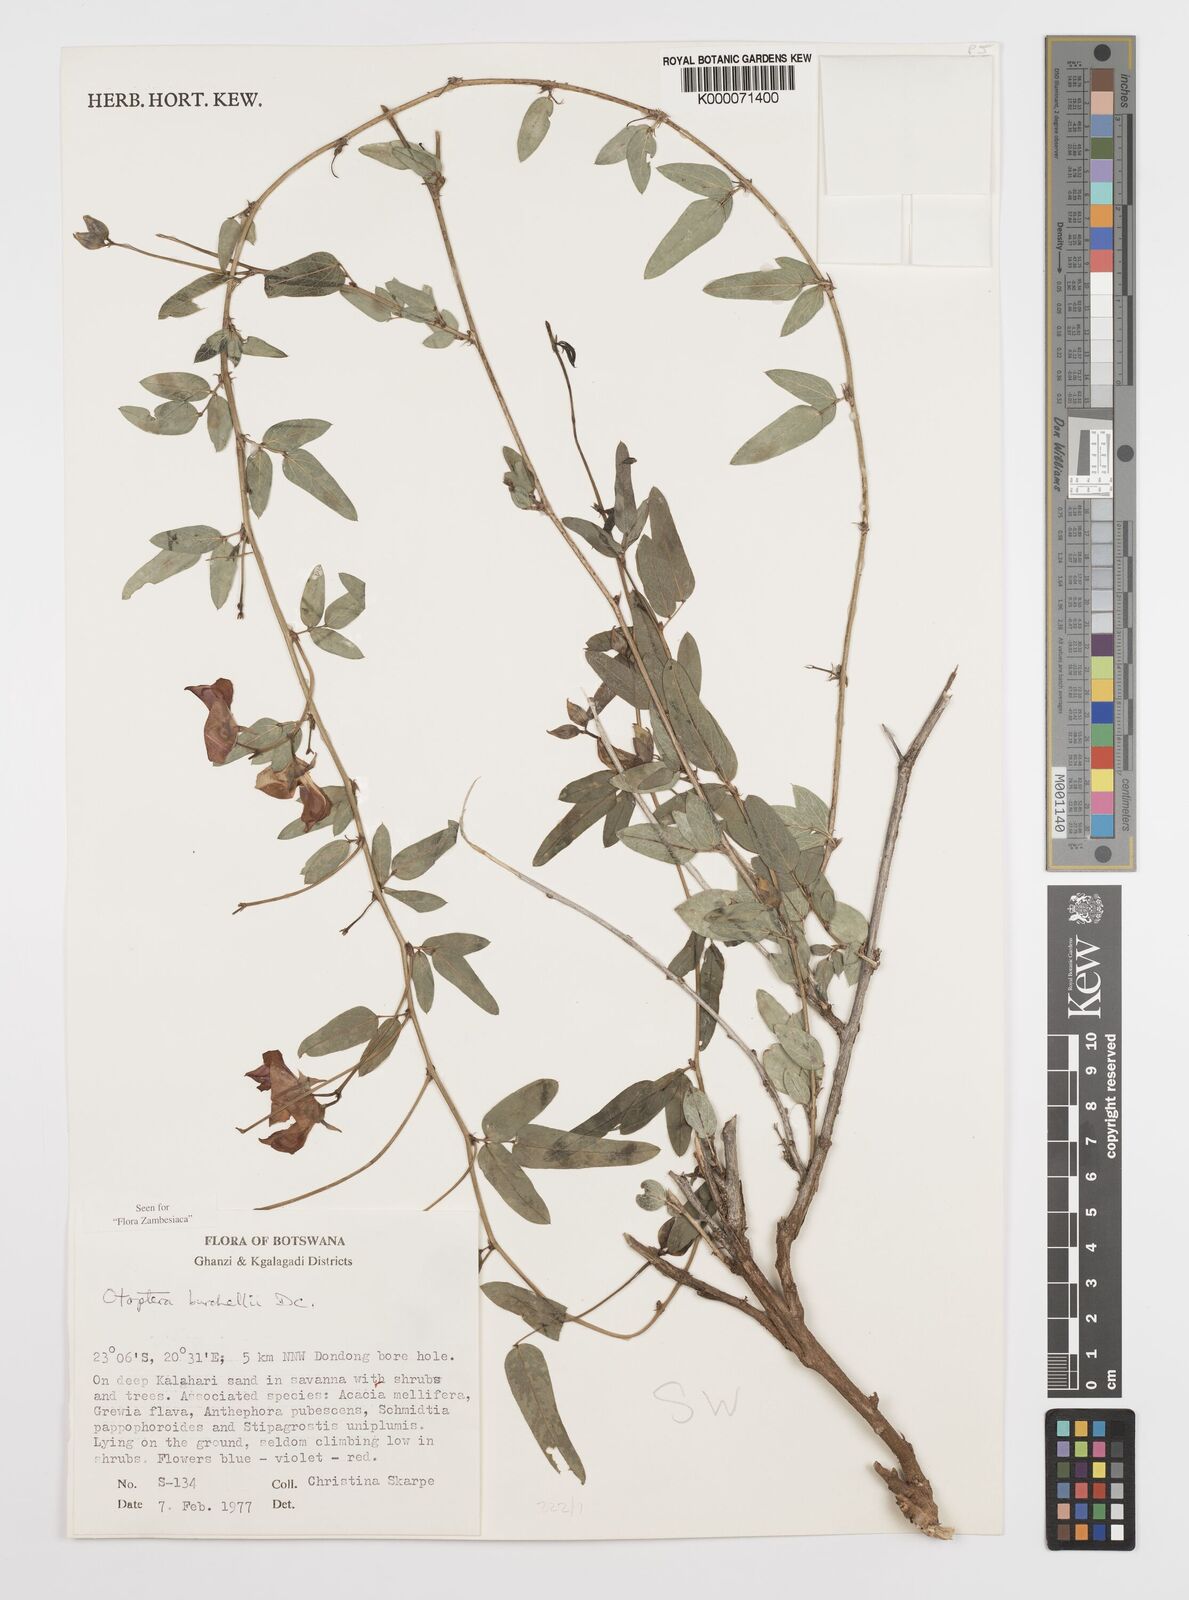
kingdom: Plantae
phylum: Tracheophyta
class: Magnoliopsida
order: Fabales
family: Fabaceae
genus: Otoptera
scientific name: Otoptera burchellii
